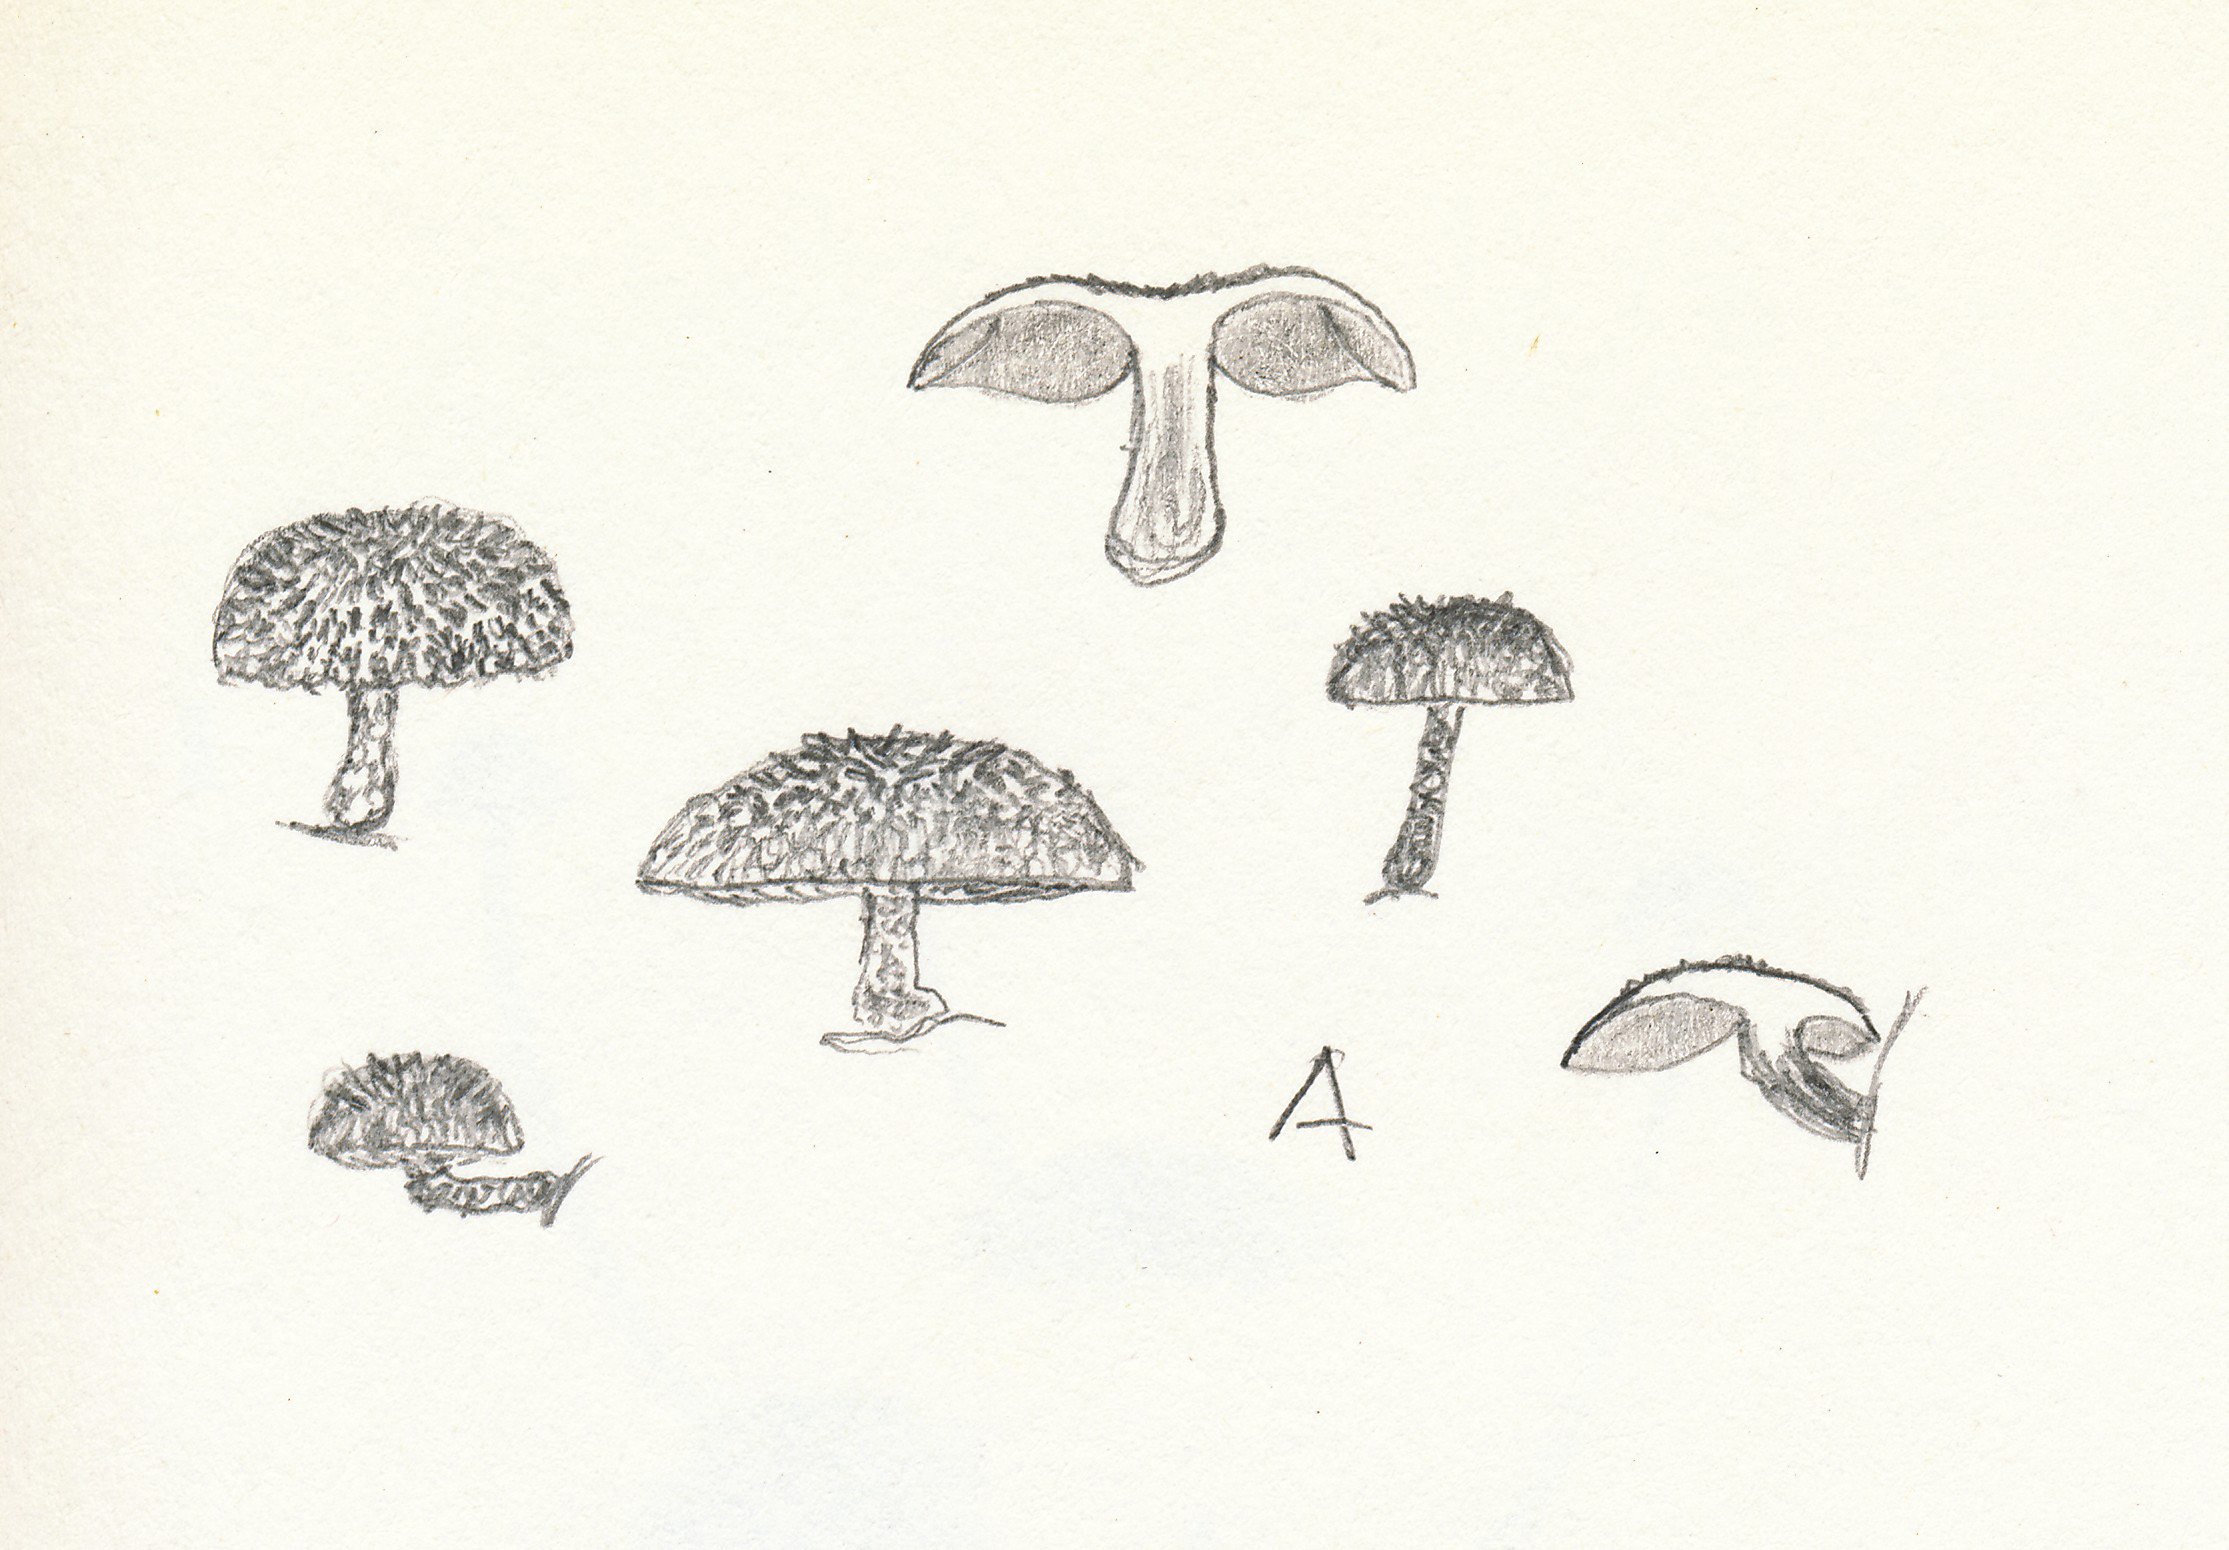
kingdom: Fungi
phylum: Basidiomycota
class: Agaricomycetes
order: Agaricales
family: Tubariaceae
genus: Phaeomarasmius
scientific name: Phaeomarasmius erinaceus
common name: spidsskælhat
